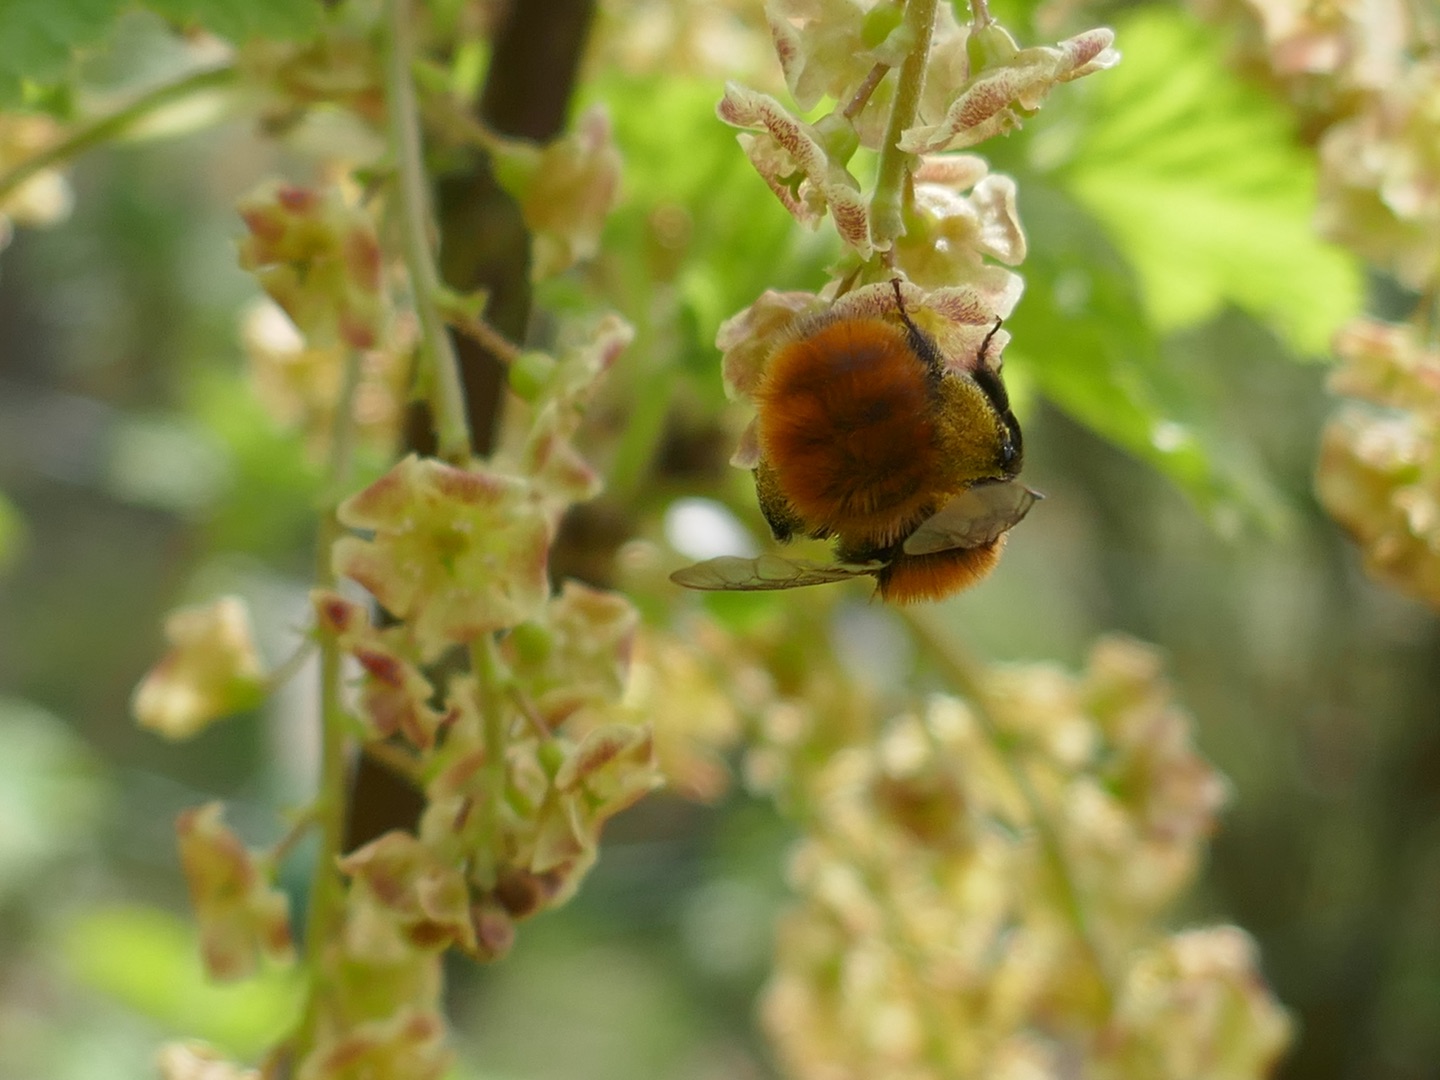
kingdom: Animalia
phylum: Arthropoda
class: Insecta
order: Hymenoptera
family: Andrenidae
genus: Andrena
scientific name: Andrena fulva
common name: Rødpelset jordbi
